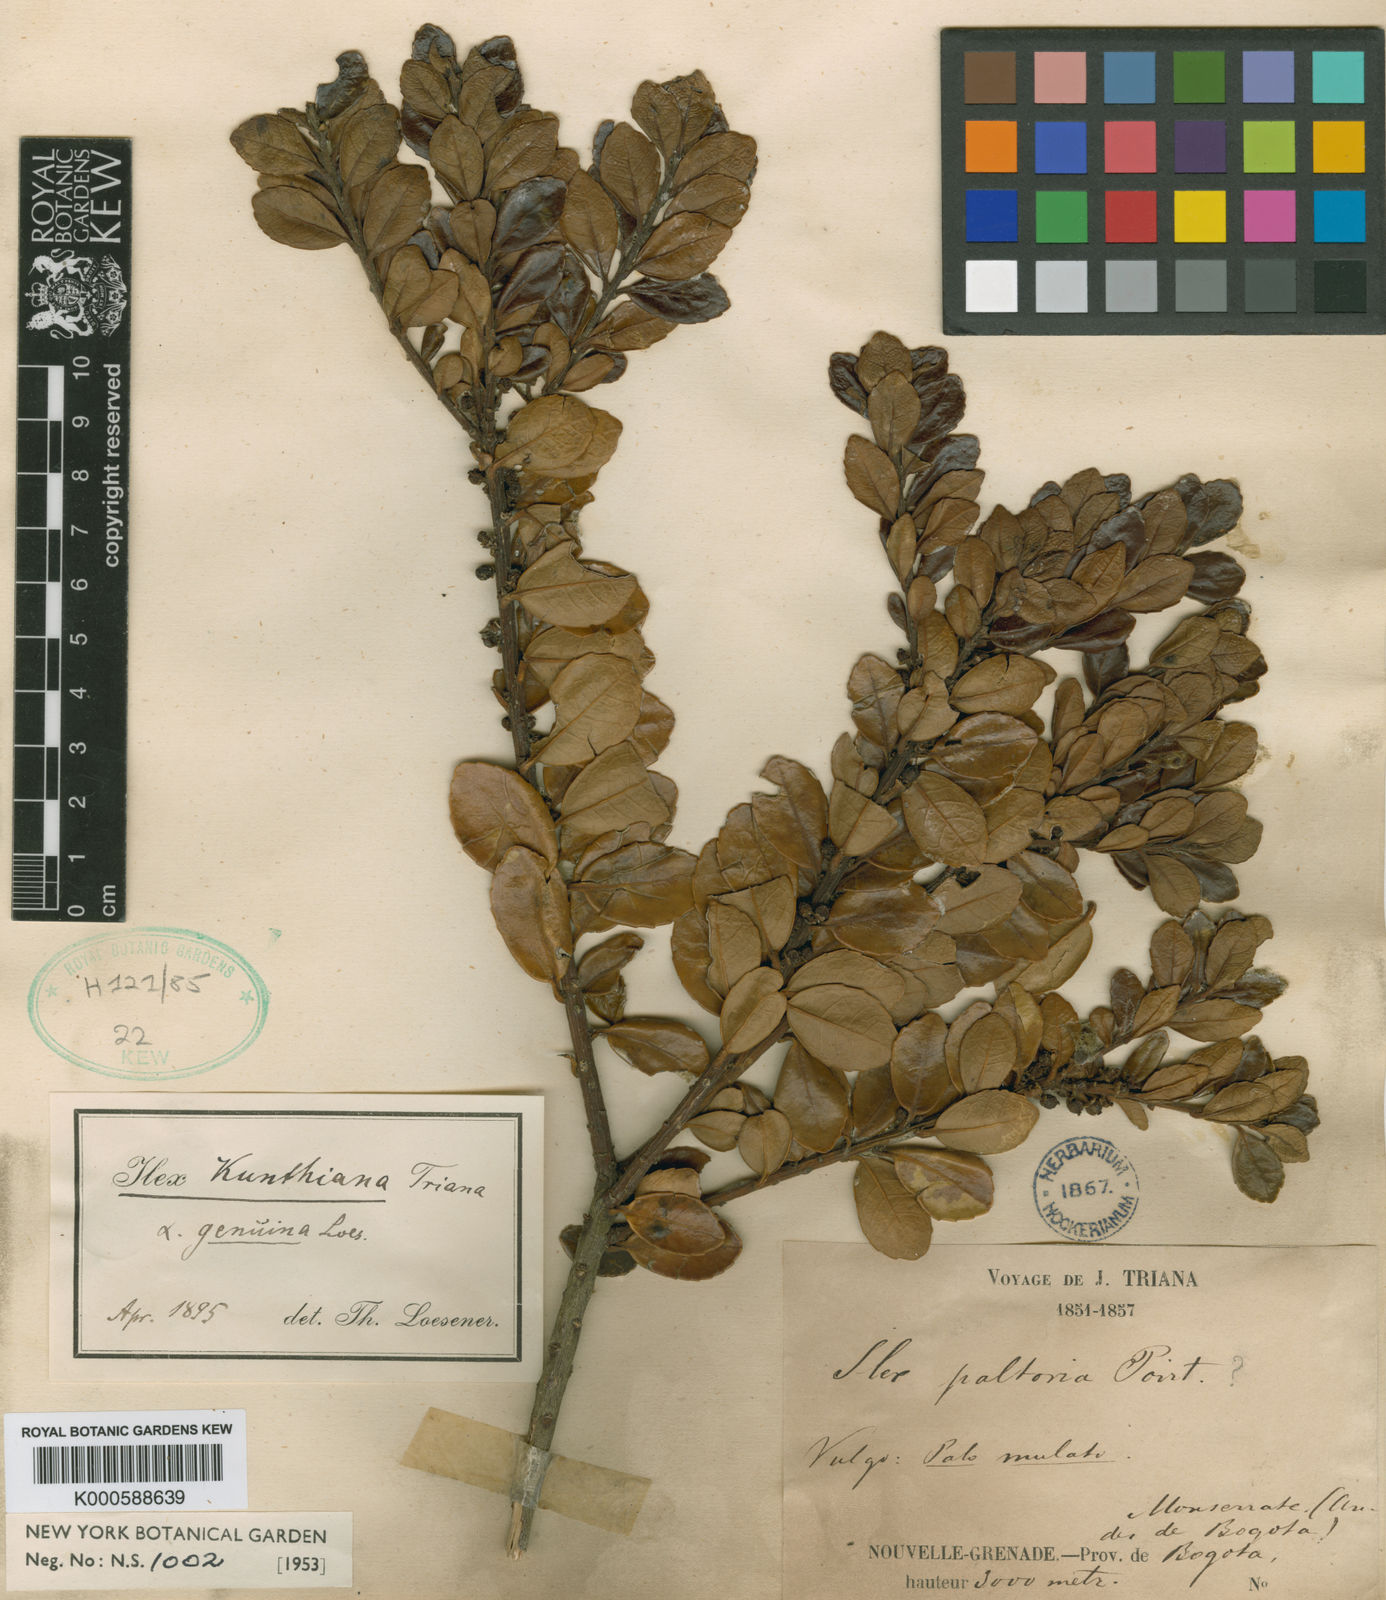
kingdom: Plantae
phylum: Tracheophyta
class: Magnoliopsida
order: Aquifoliales
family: Aquifoliaceae
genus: Ilex
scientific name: Ilex kunthiana
